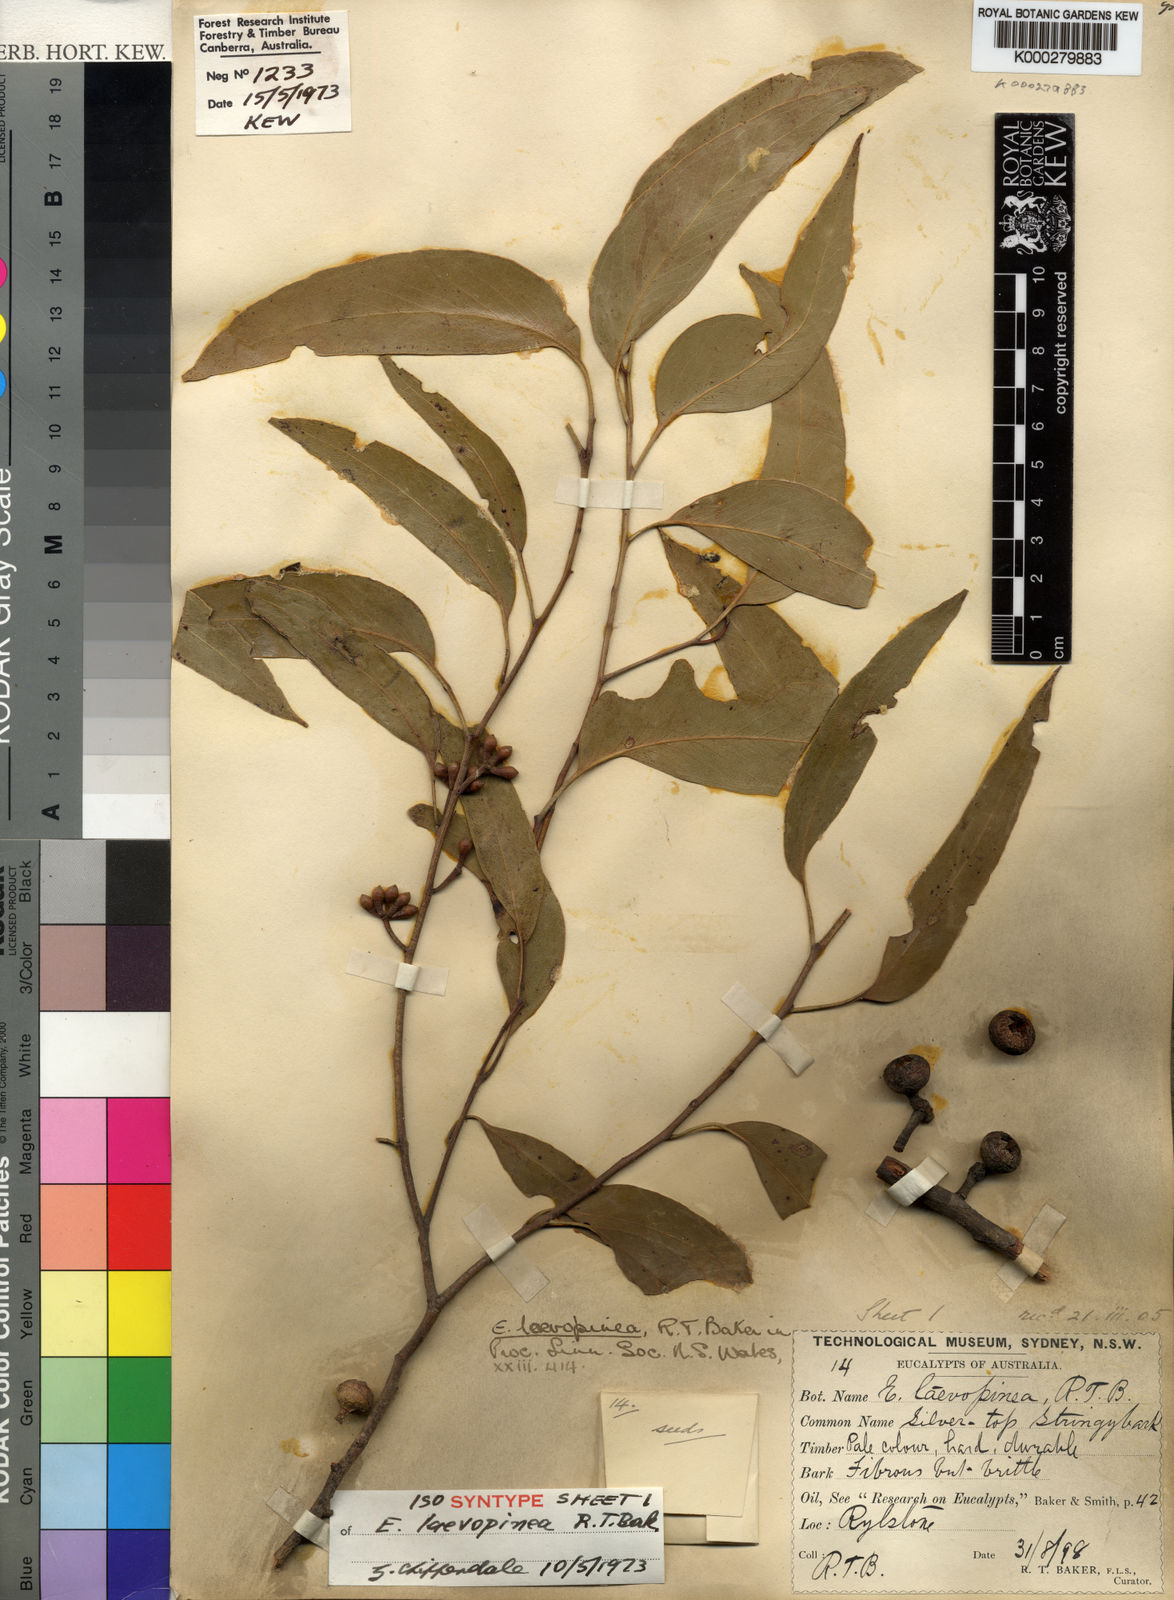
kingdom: Plantae
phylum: Tracheophyta
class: Magnoliopsida
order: Myrtales
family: Myrtaceae
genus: Eucalyptus
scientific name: Eucalyptus laevopinea
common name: Silvertop stringybark
